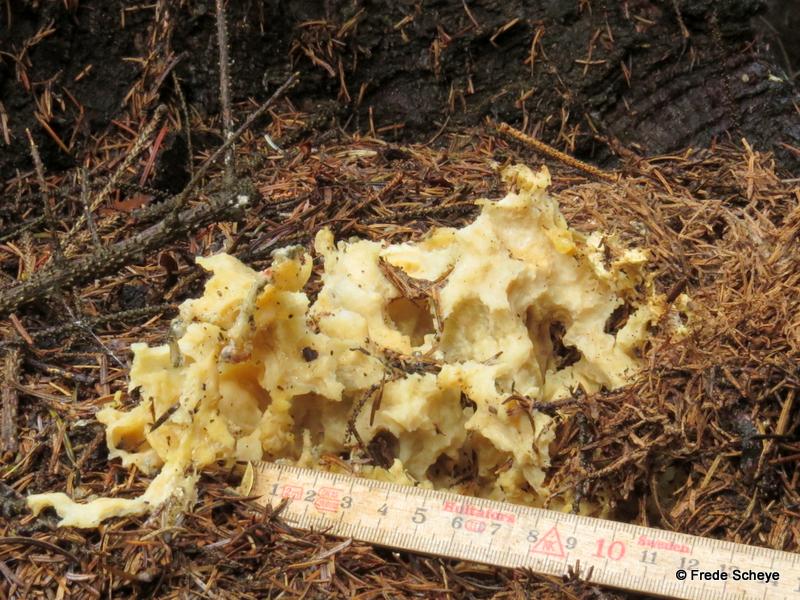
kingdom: Fungi
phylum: Basidiomycota
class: Agaricomycetes
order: Polyporales
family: Sparassidaceae
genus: Sparassis
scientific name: Sparassis crispa
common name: kruset blomkålssvamp
